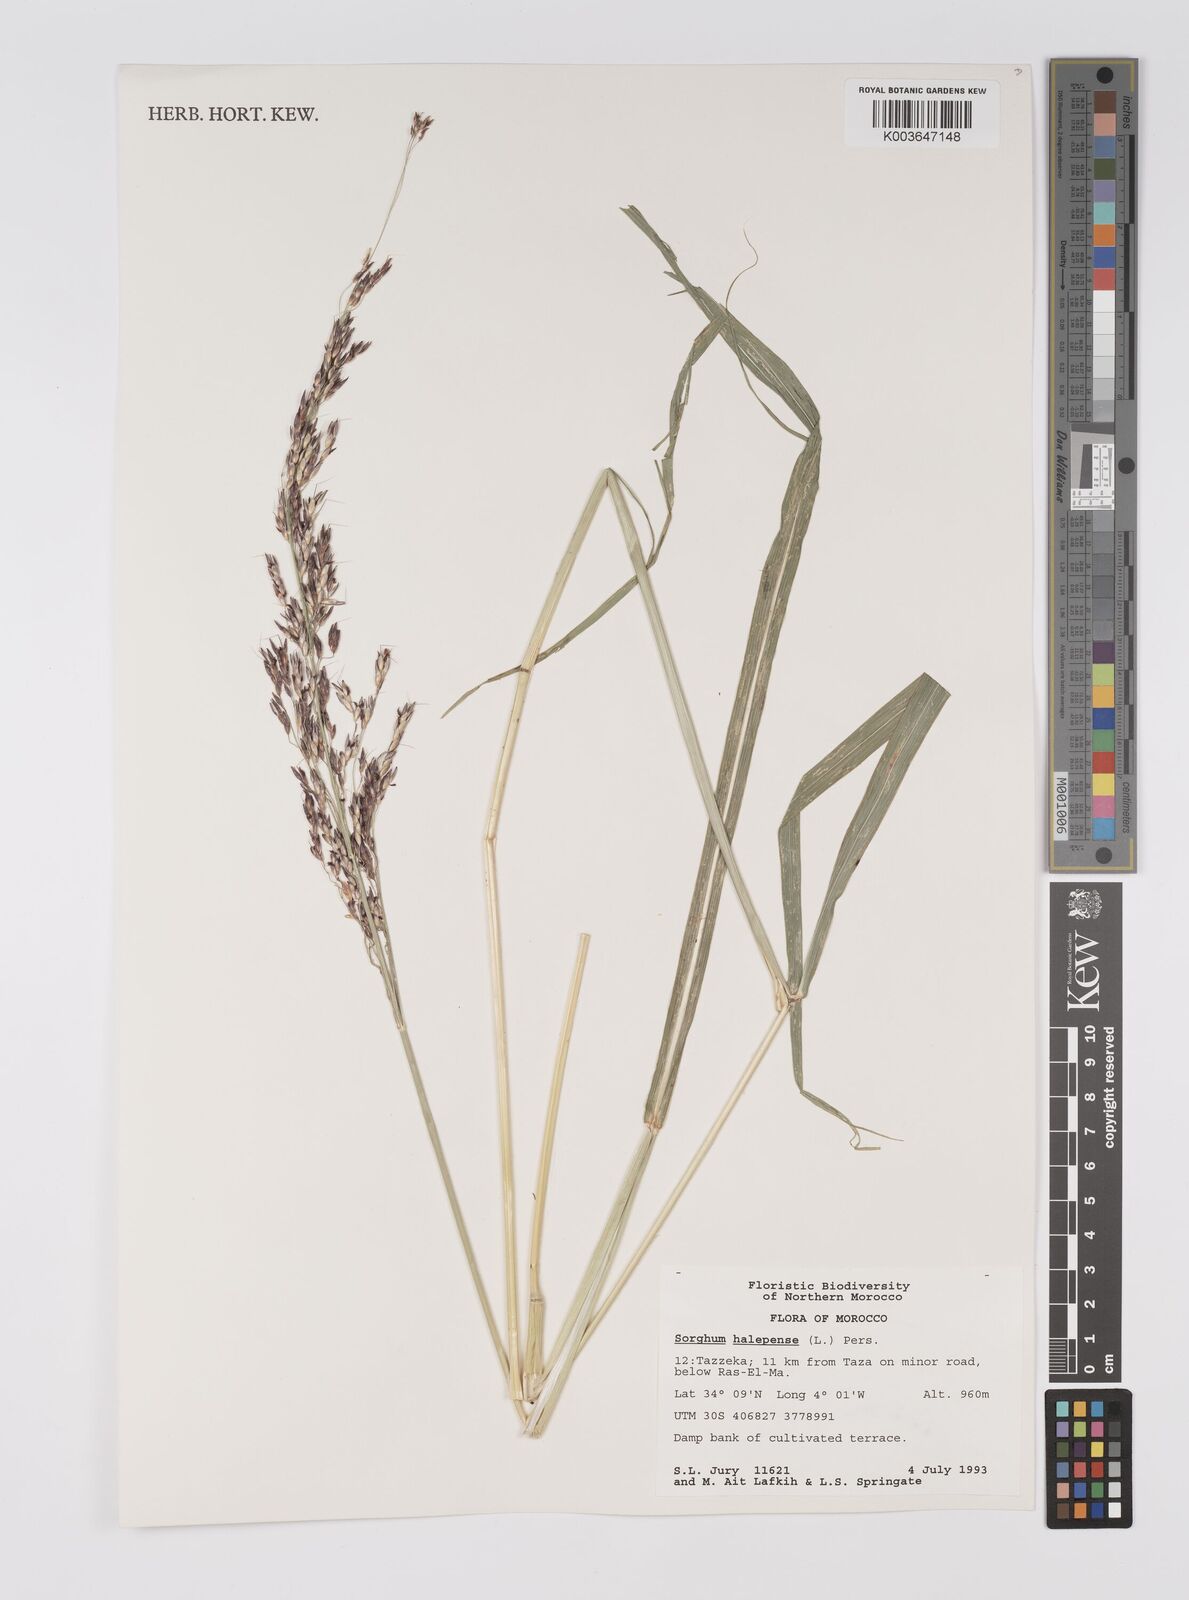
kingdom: Plantae
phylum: Tracheophyta
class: Liliopsida
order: Poales
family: Poaceae
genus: Sorghum
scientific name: Sorghum halepense
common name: Johnson-grass
